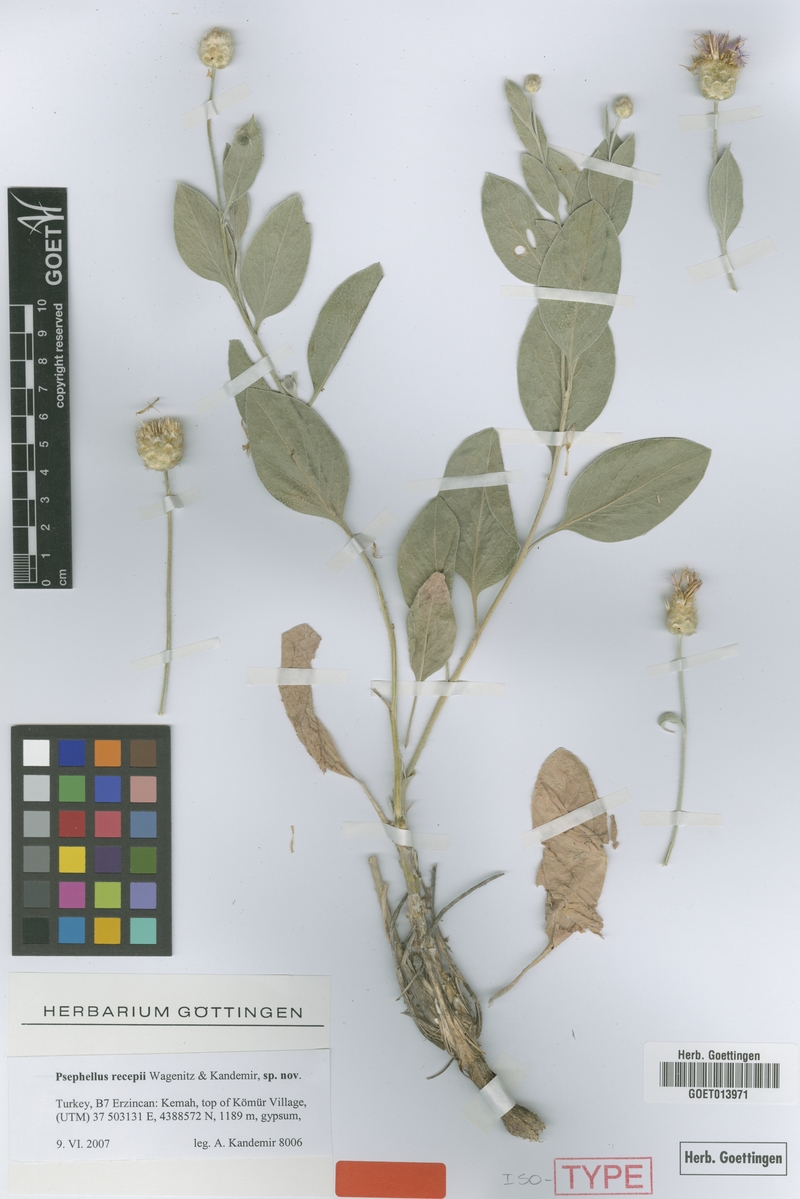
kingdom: Plantae
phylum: Tracheophyta
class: Magnoliopsida
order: Asterales
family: Asteraceae
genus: Psephellus
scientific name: Psephellus recepii
